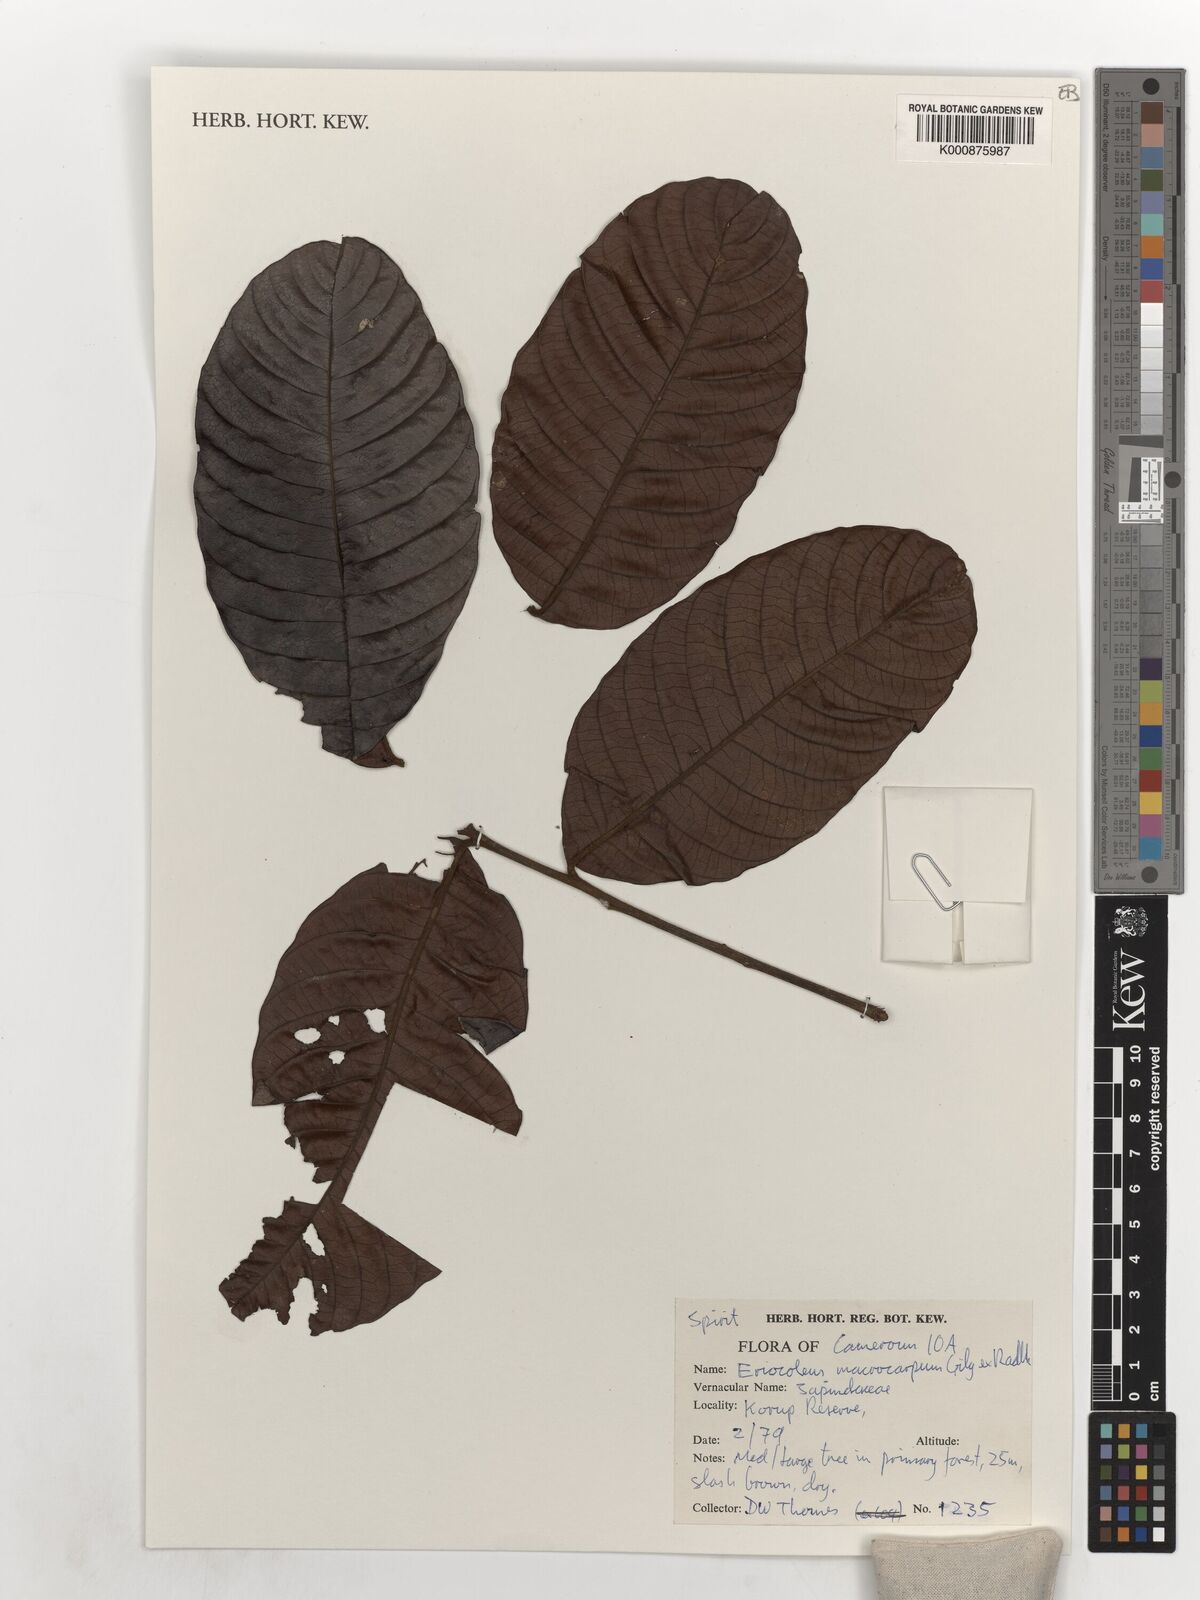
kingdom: Plantae
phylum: Tracheophyta
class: Magnoliopsida
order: Sapindales
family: Sapindaceae
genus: Eriocoelum
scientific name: Eriocoelum macrocarpum
